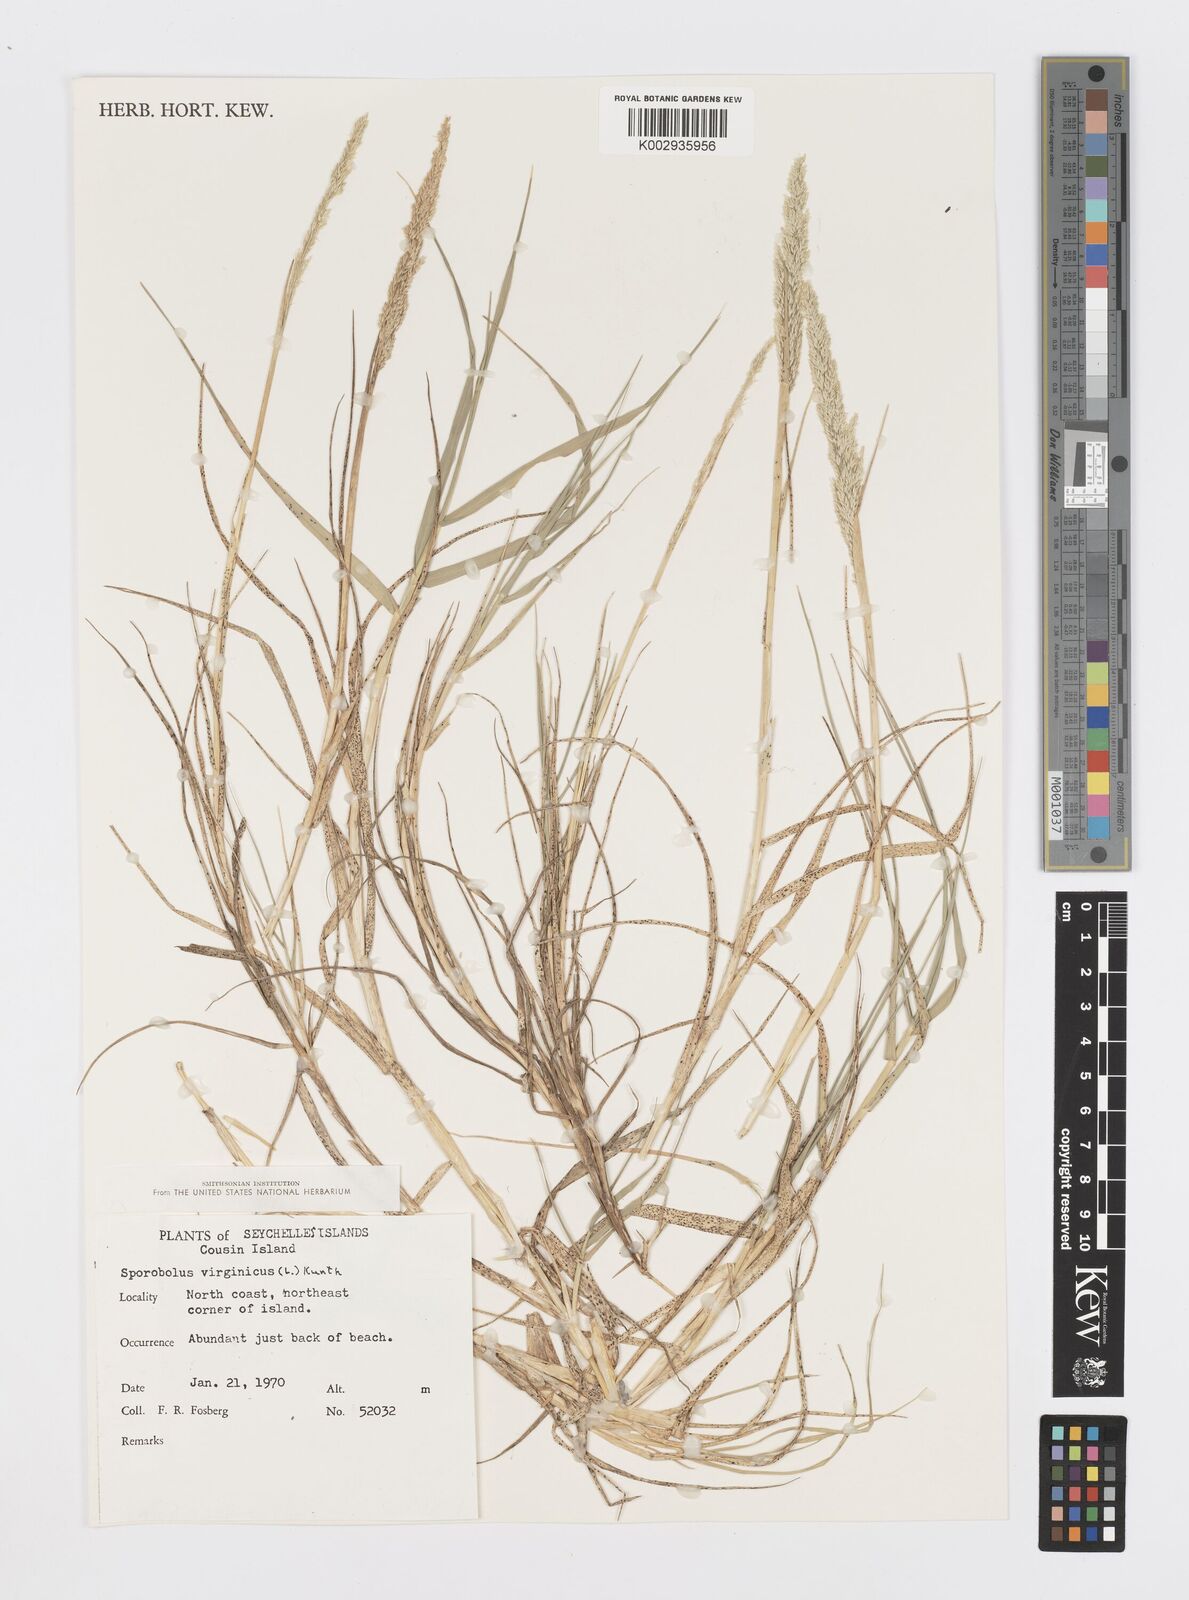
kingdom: Plantae
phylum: Tracheophyta
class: Liliopsida
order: Poales
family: Poaceae
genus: Sporobolus
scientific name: Sporobolus virginicus
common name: Beach dropseed
